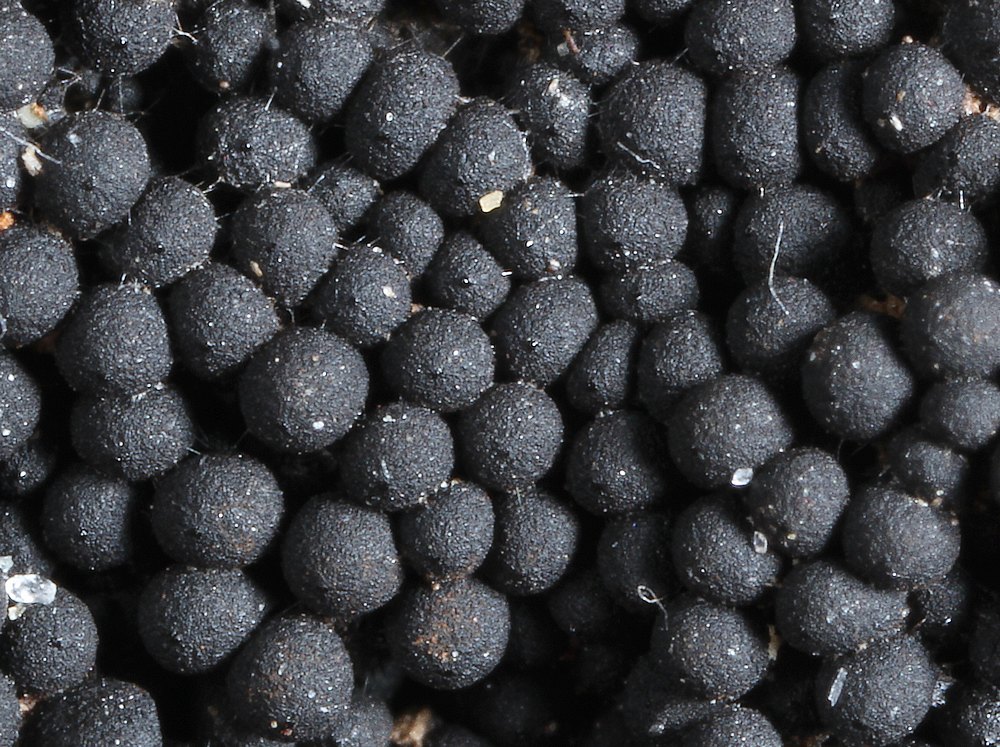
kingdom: Fungi
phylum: Ascomycota
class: Sordariomycetes
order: Sordariales
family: Helminthosphaeriaceae
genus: Ruzenia
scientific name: Ruzenia spermoides
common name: glat børstekerne
